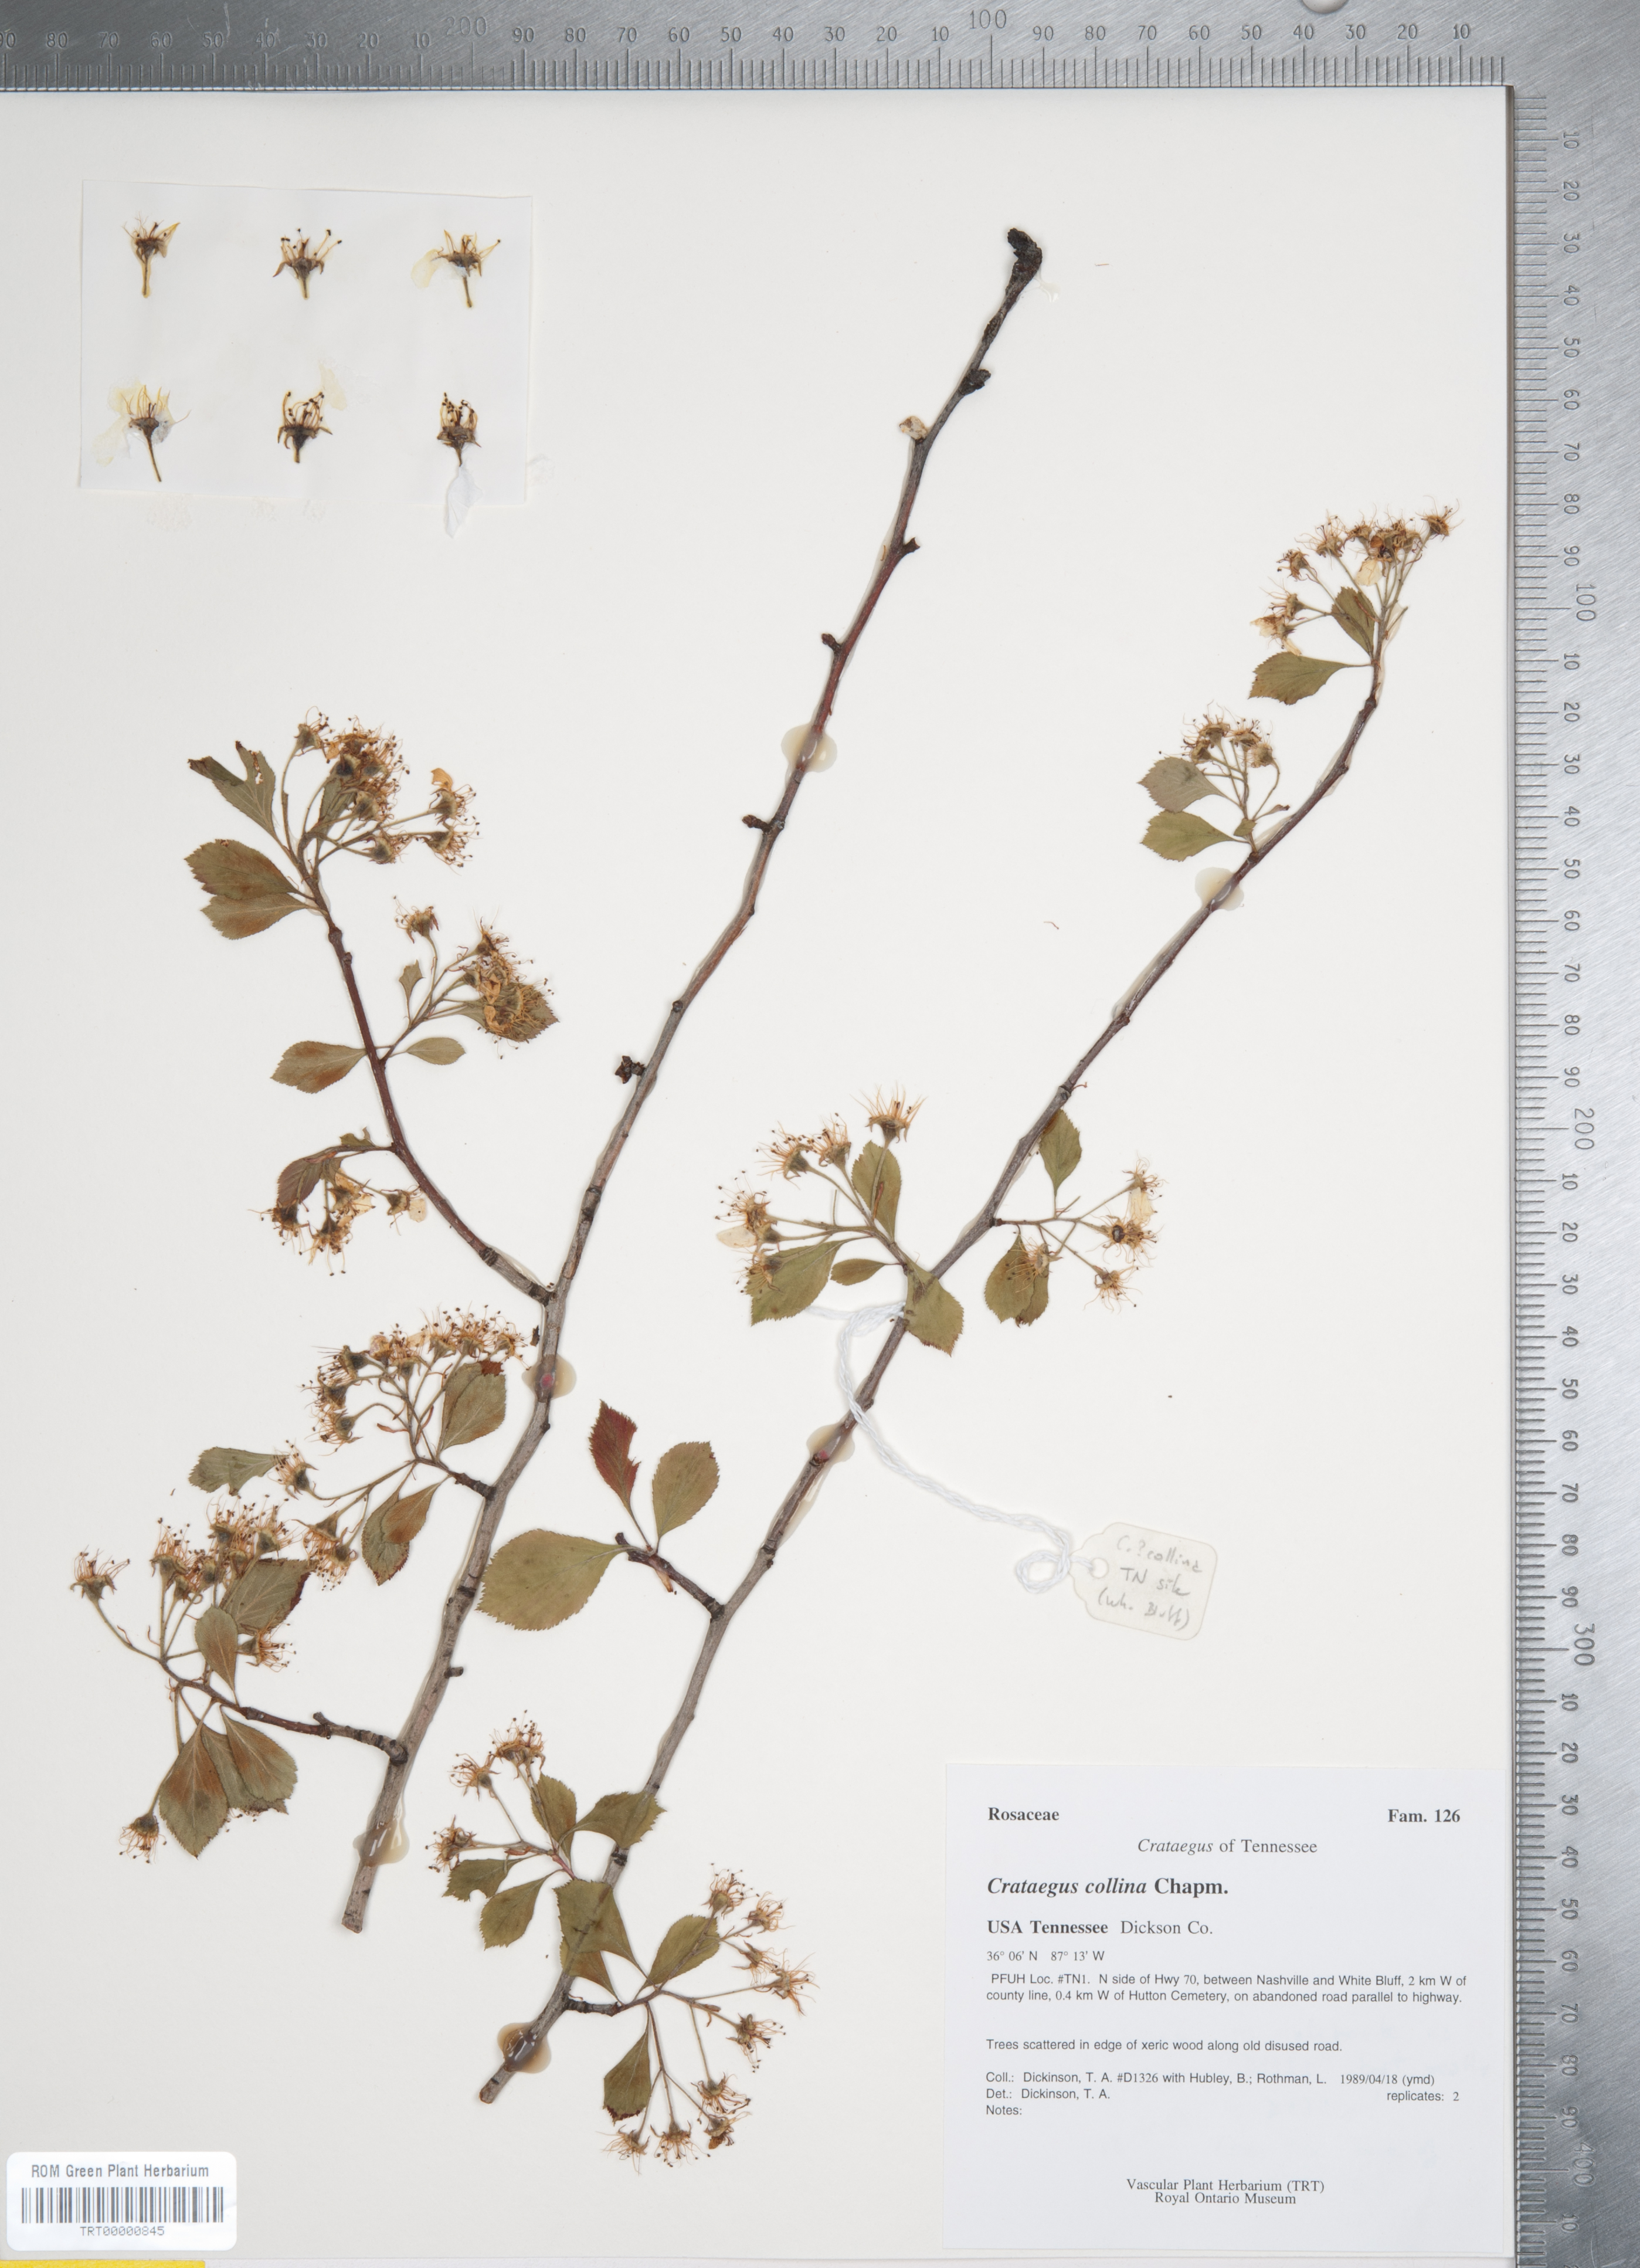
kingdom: Plantae
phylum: Tracheophyta
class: Magnoliopsida
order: Rosales
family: Rosaceae
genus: Crataegus
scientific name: Crataegus collina
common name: Hillside hawthorn
